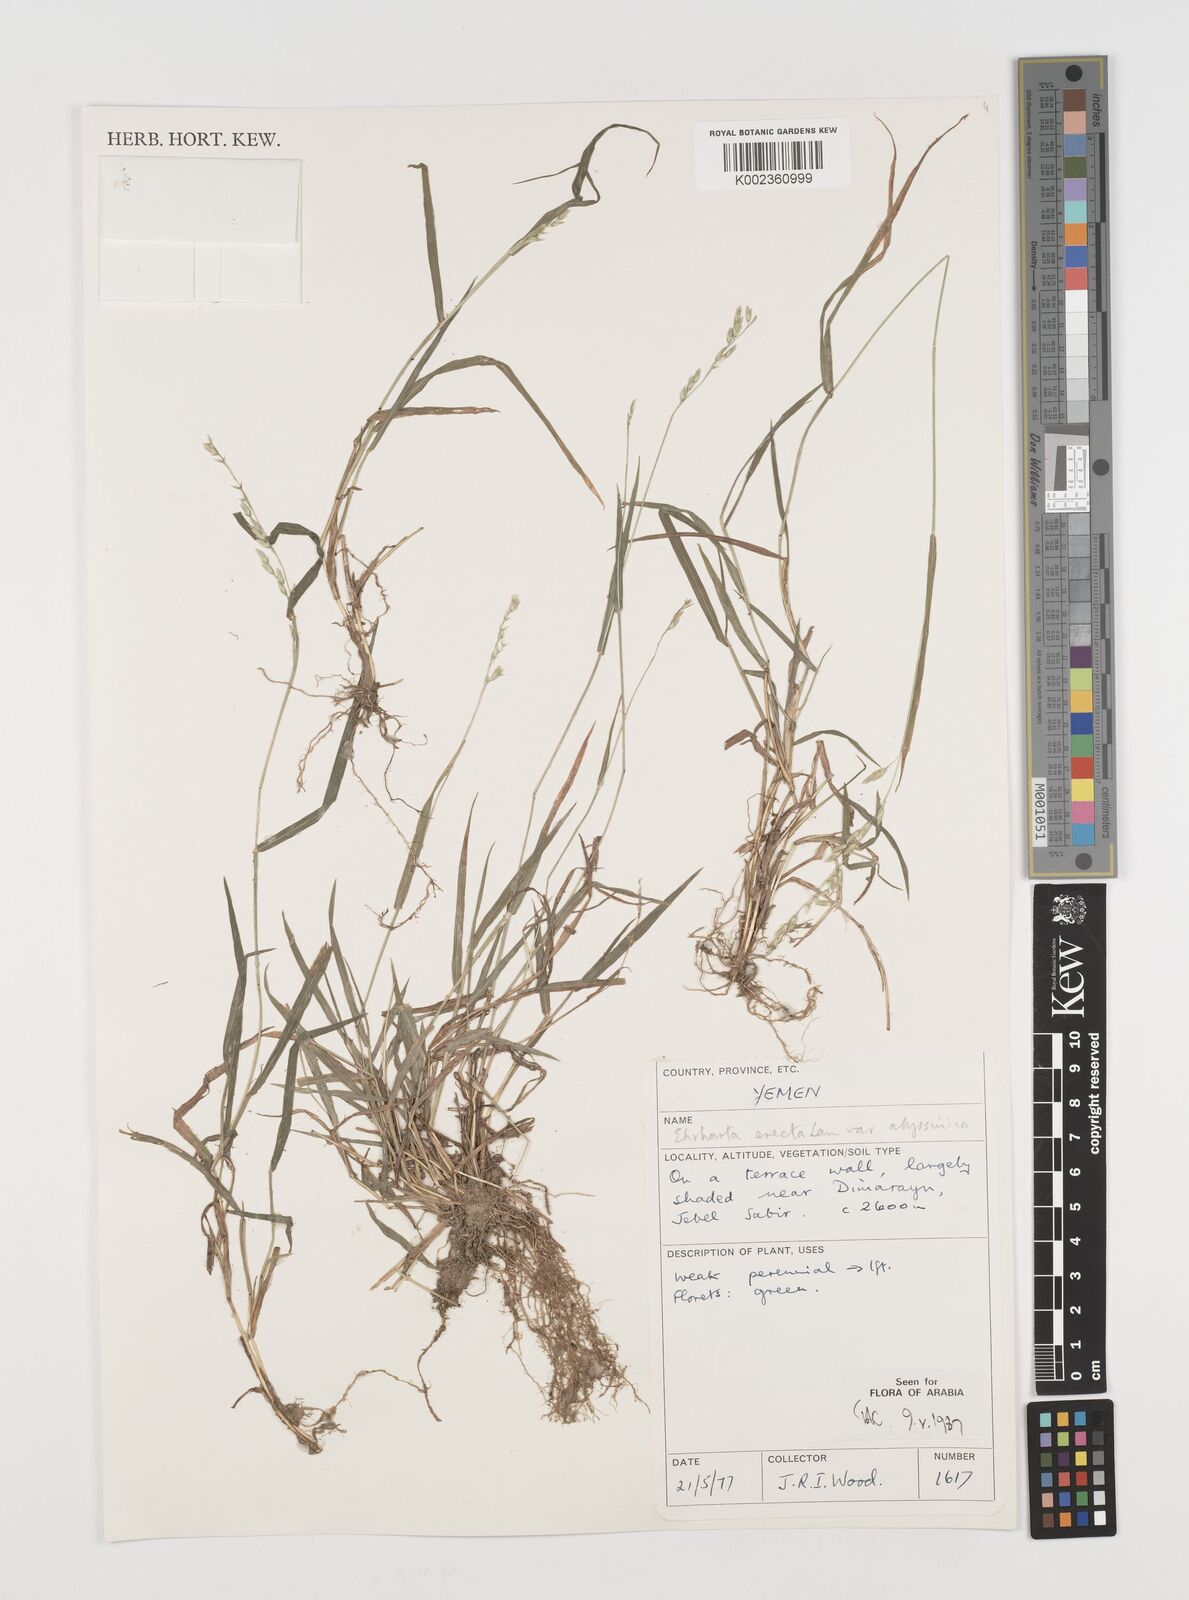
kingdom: Plantae
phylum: Tracheophyta
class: Liliopsida
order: Poales
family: Poaceae
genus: Ehrharta
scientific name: Ehrharta erecta
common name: Panic veldtgrass
